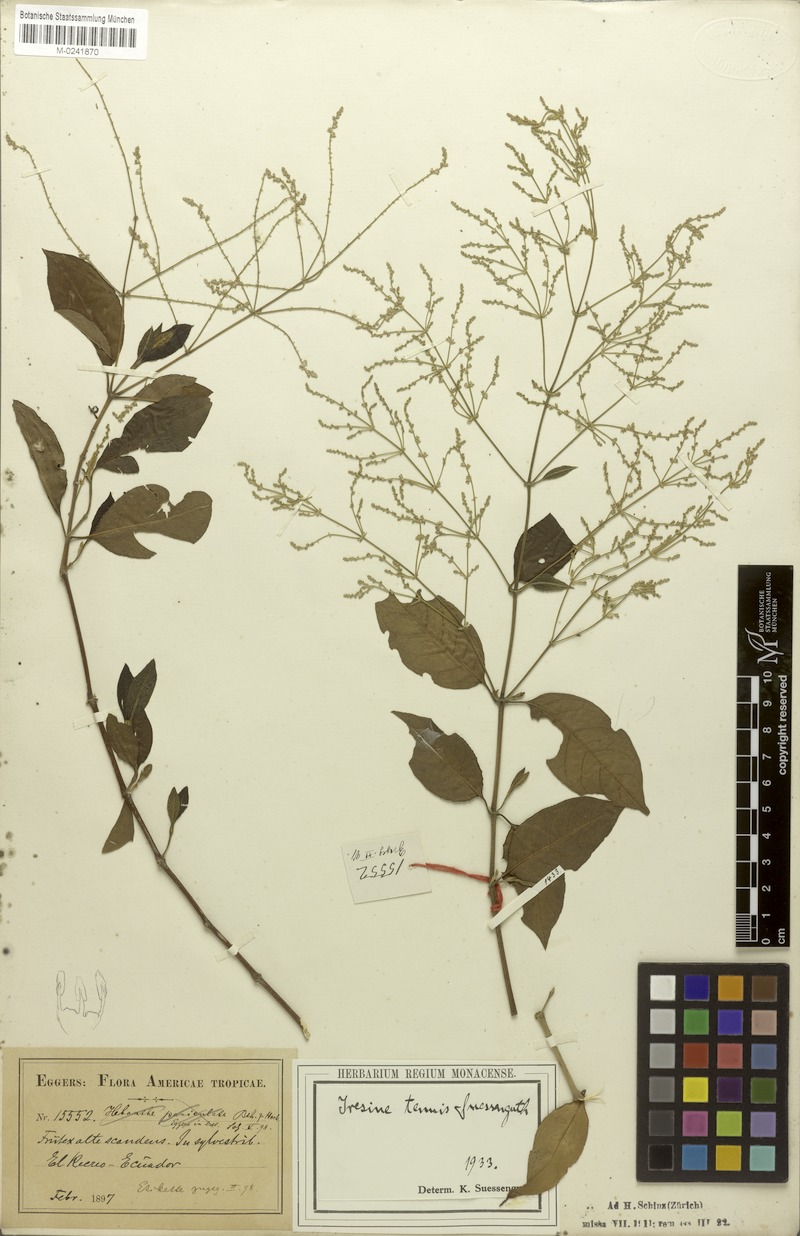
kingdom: Plantae
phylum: Tracheophyta
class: Magnoliopsida
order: Caryophyllales
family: Amaranthaceae
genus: Hebanthe
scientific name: Hebanthe erianthos
